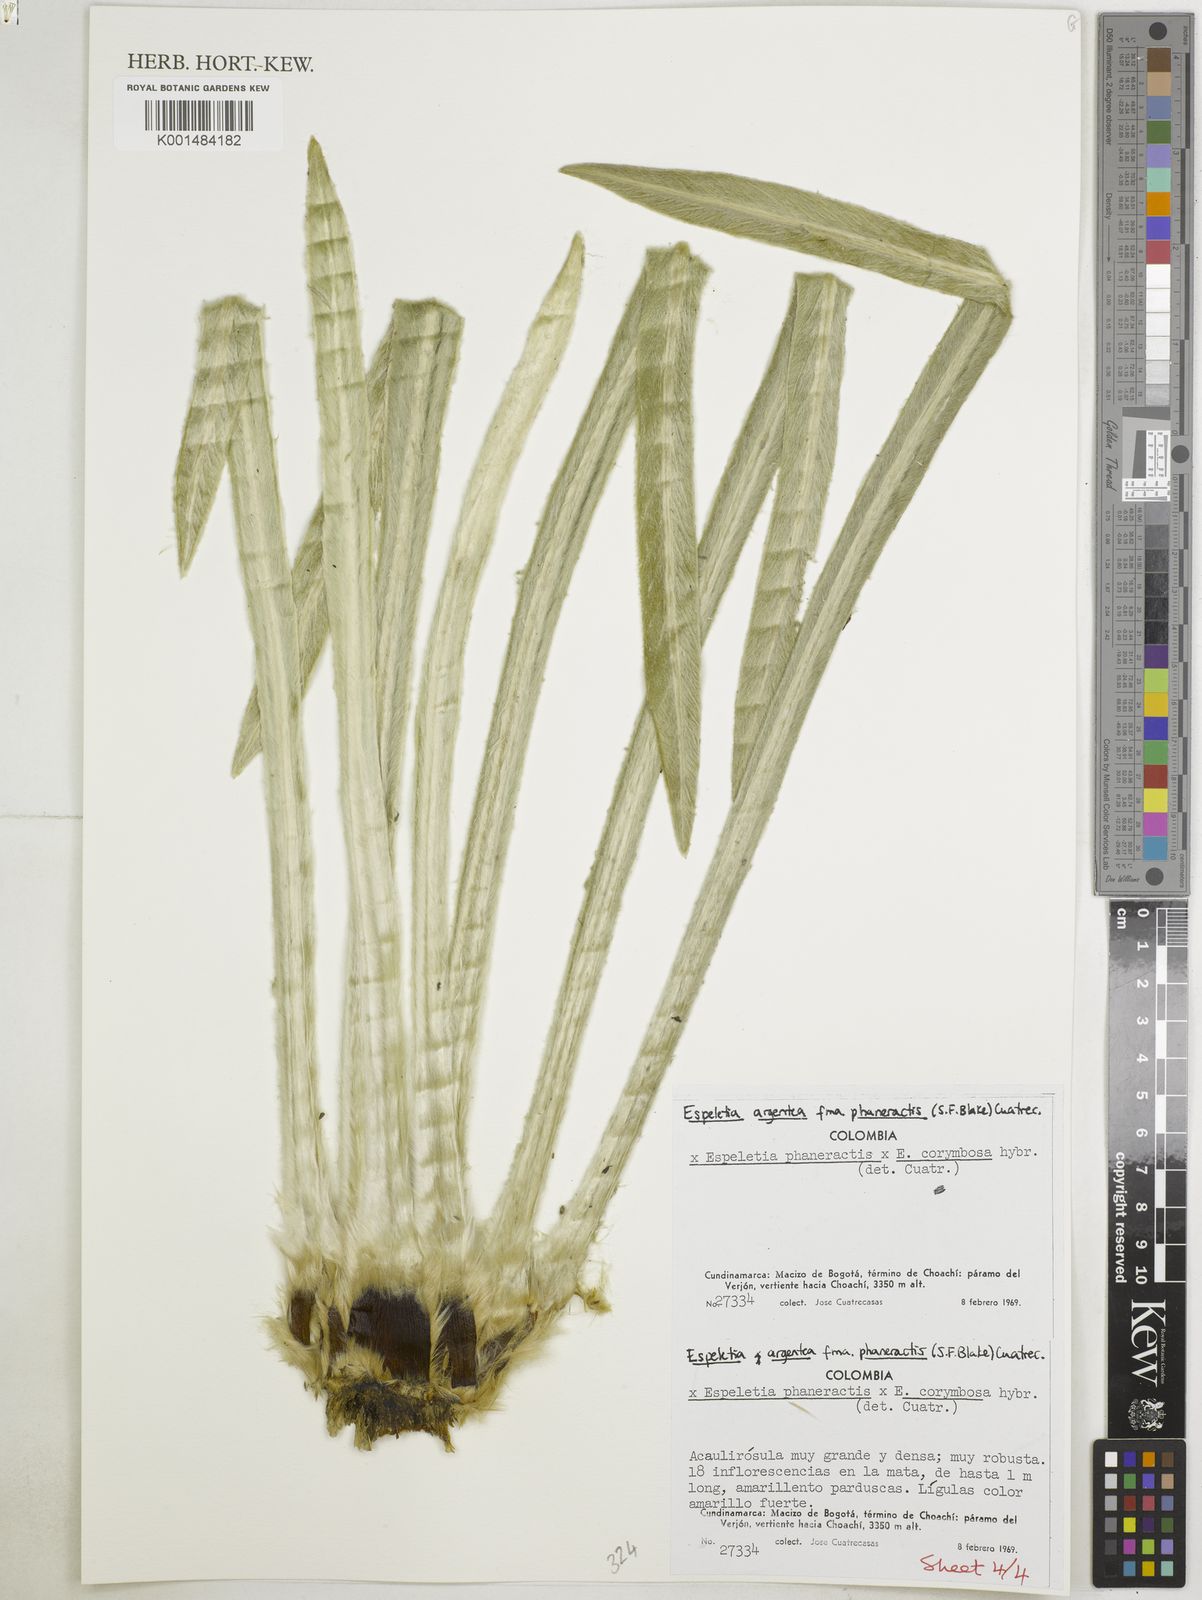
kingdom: Plantae
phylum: Tracheophyta
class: Magnoliopsida
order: Asterales
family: Asteraceae
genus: Espeletia
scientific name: Espeletia argentea
